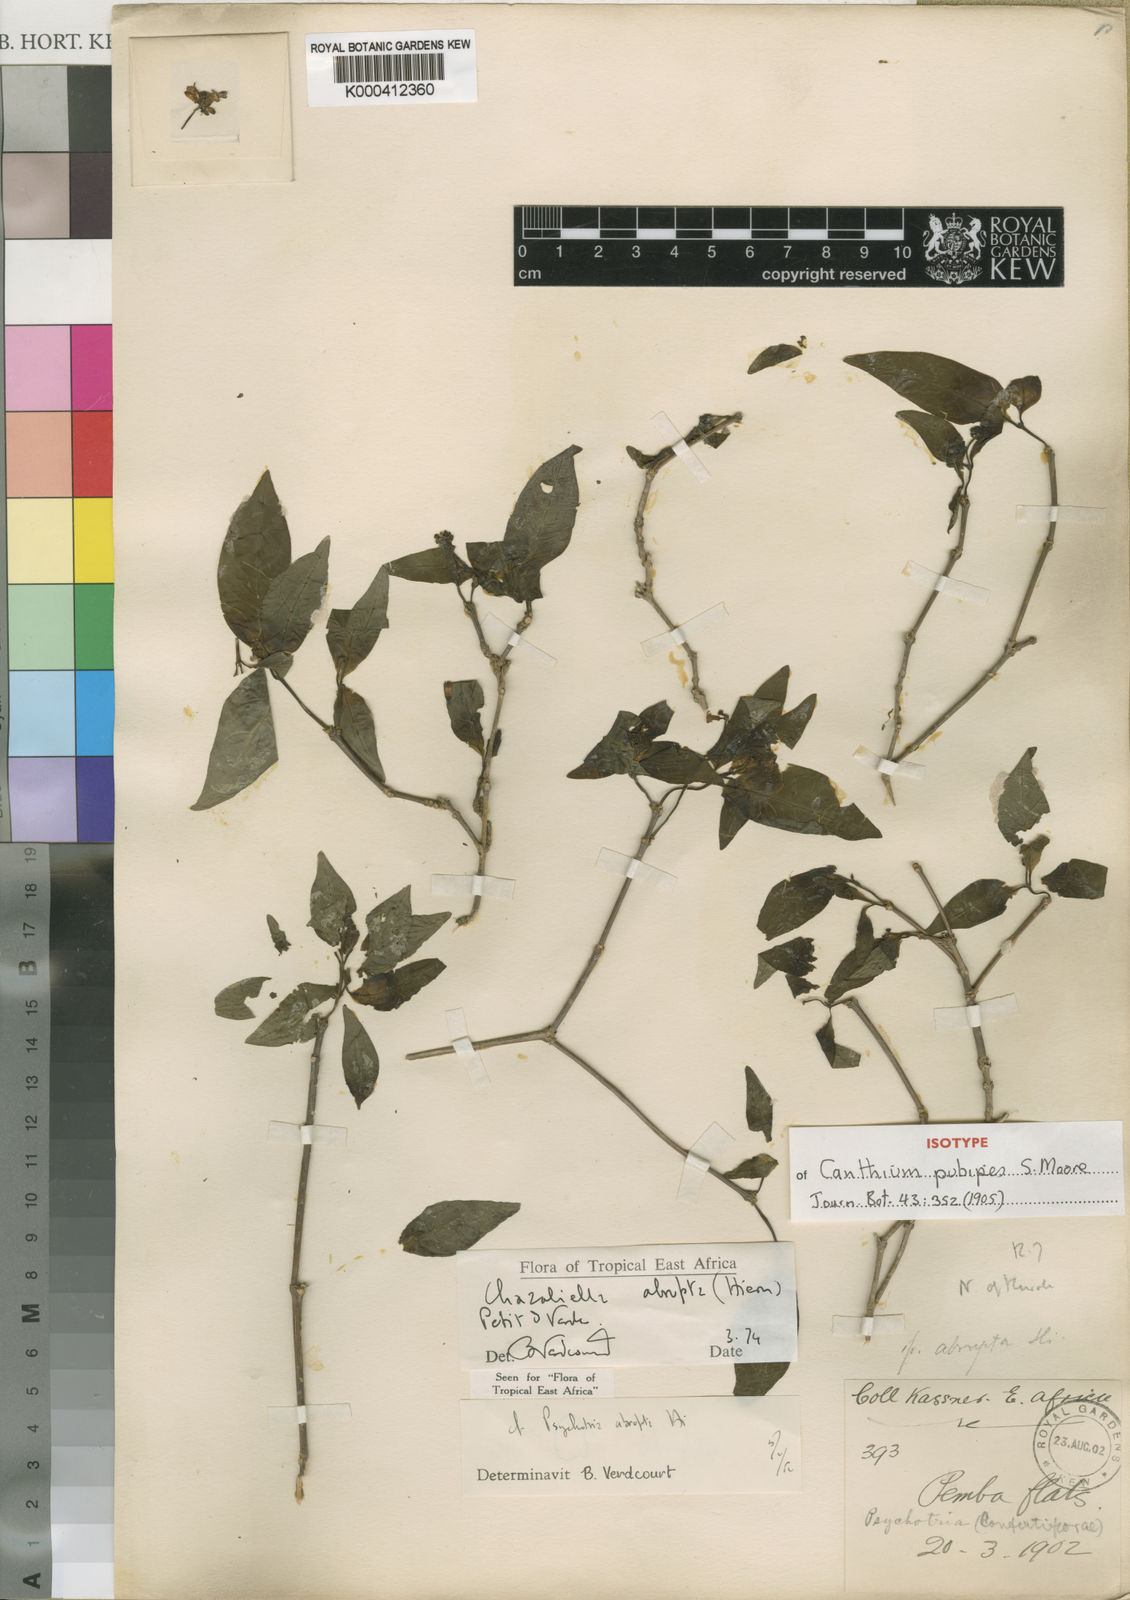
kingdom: Plantae
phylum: Tracheophyta
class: Magnoliopsida
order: Gentianales
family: Rubiaceae
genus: Eumachia
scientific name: Eumachia abrupta
